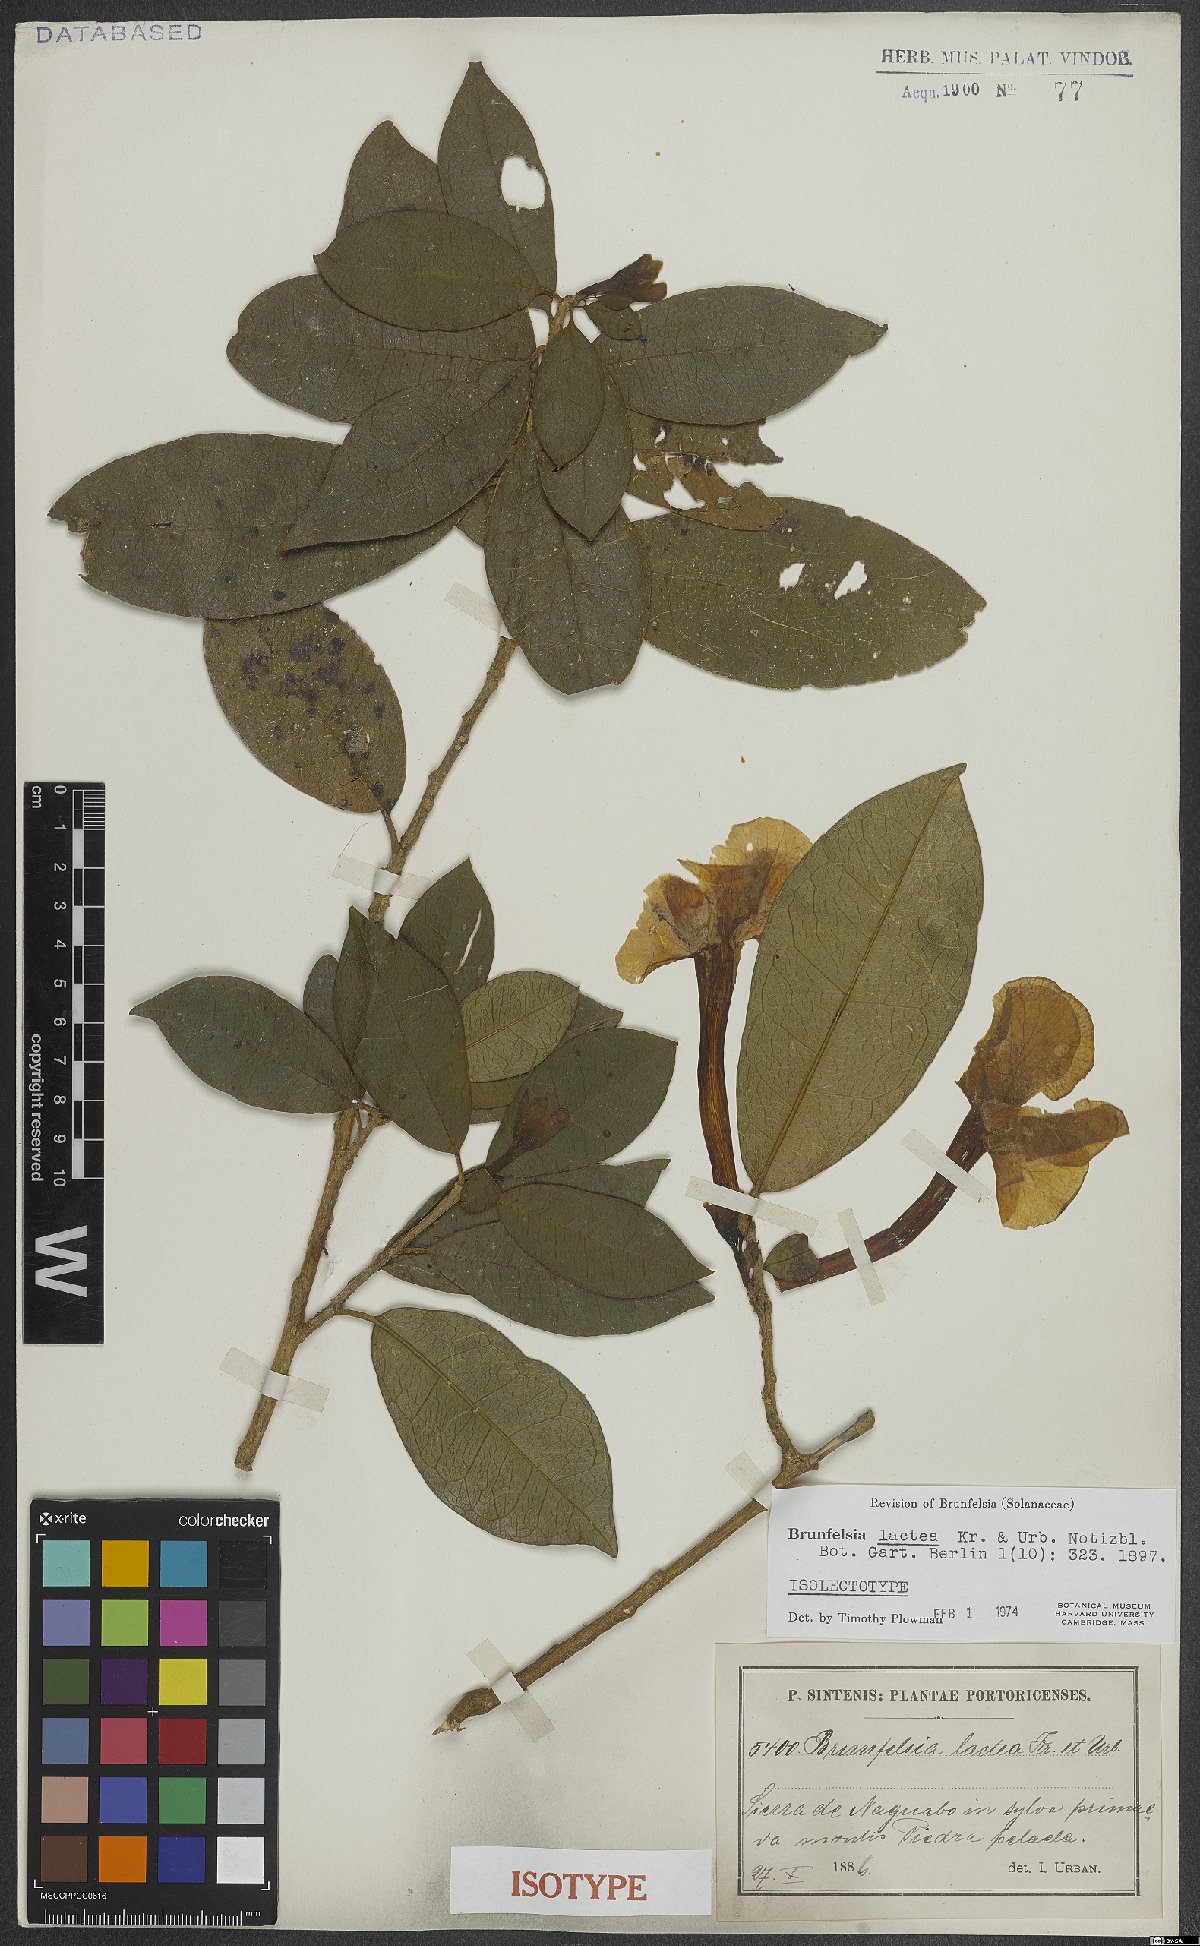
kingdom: Plantae
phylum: Tracheophyta
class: Magnoliopsida
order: Solanales
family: Solanaceae
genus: Brunfelsia
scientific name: Brunfelsia lactea
